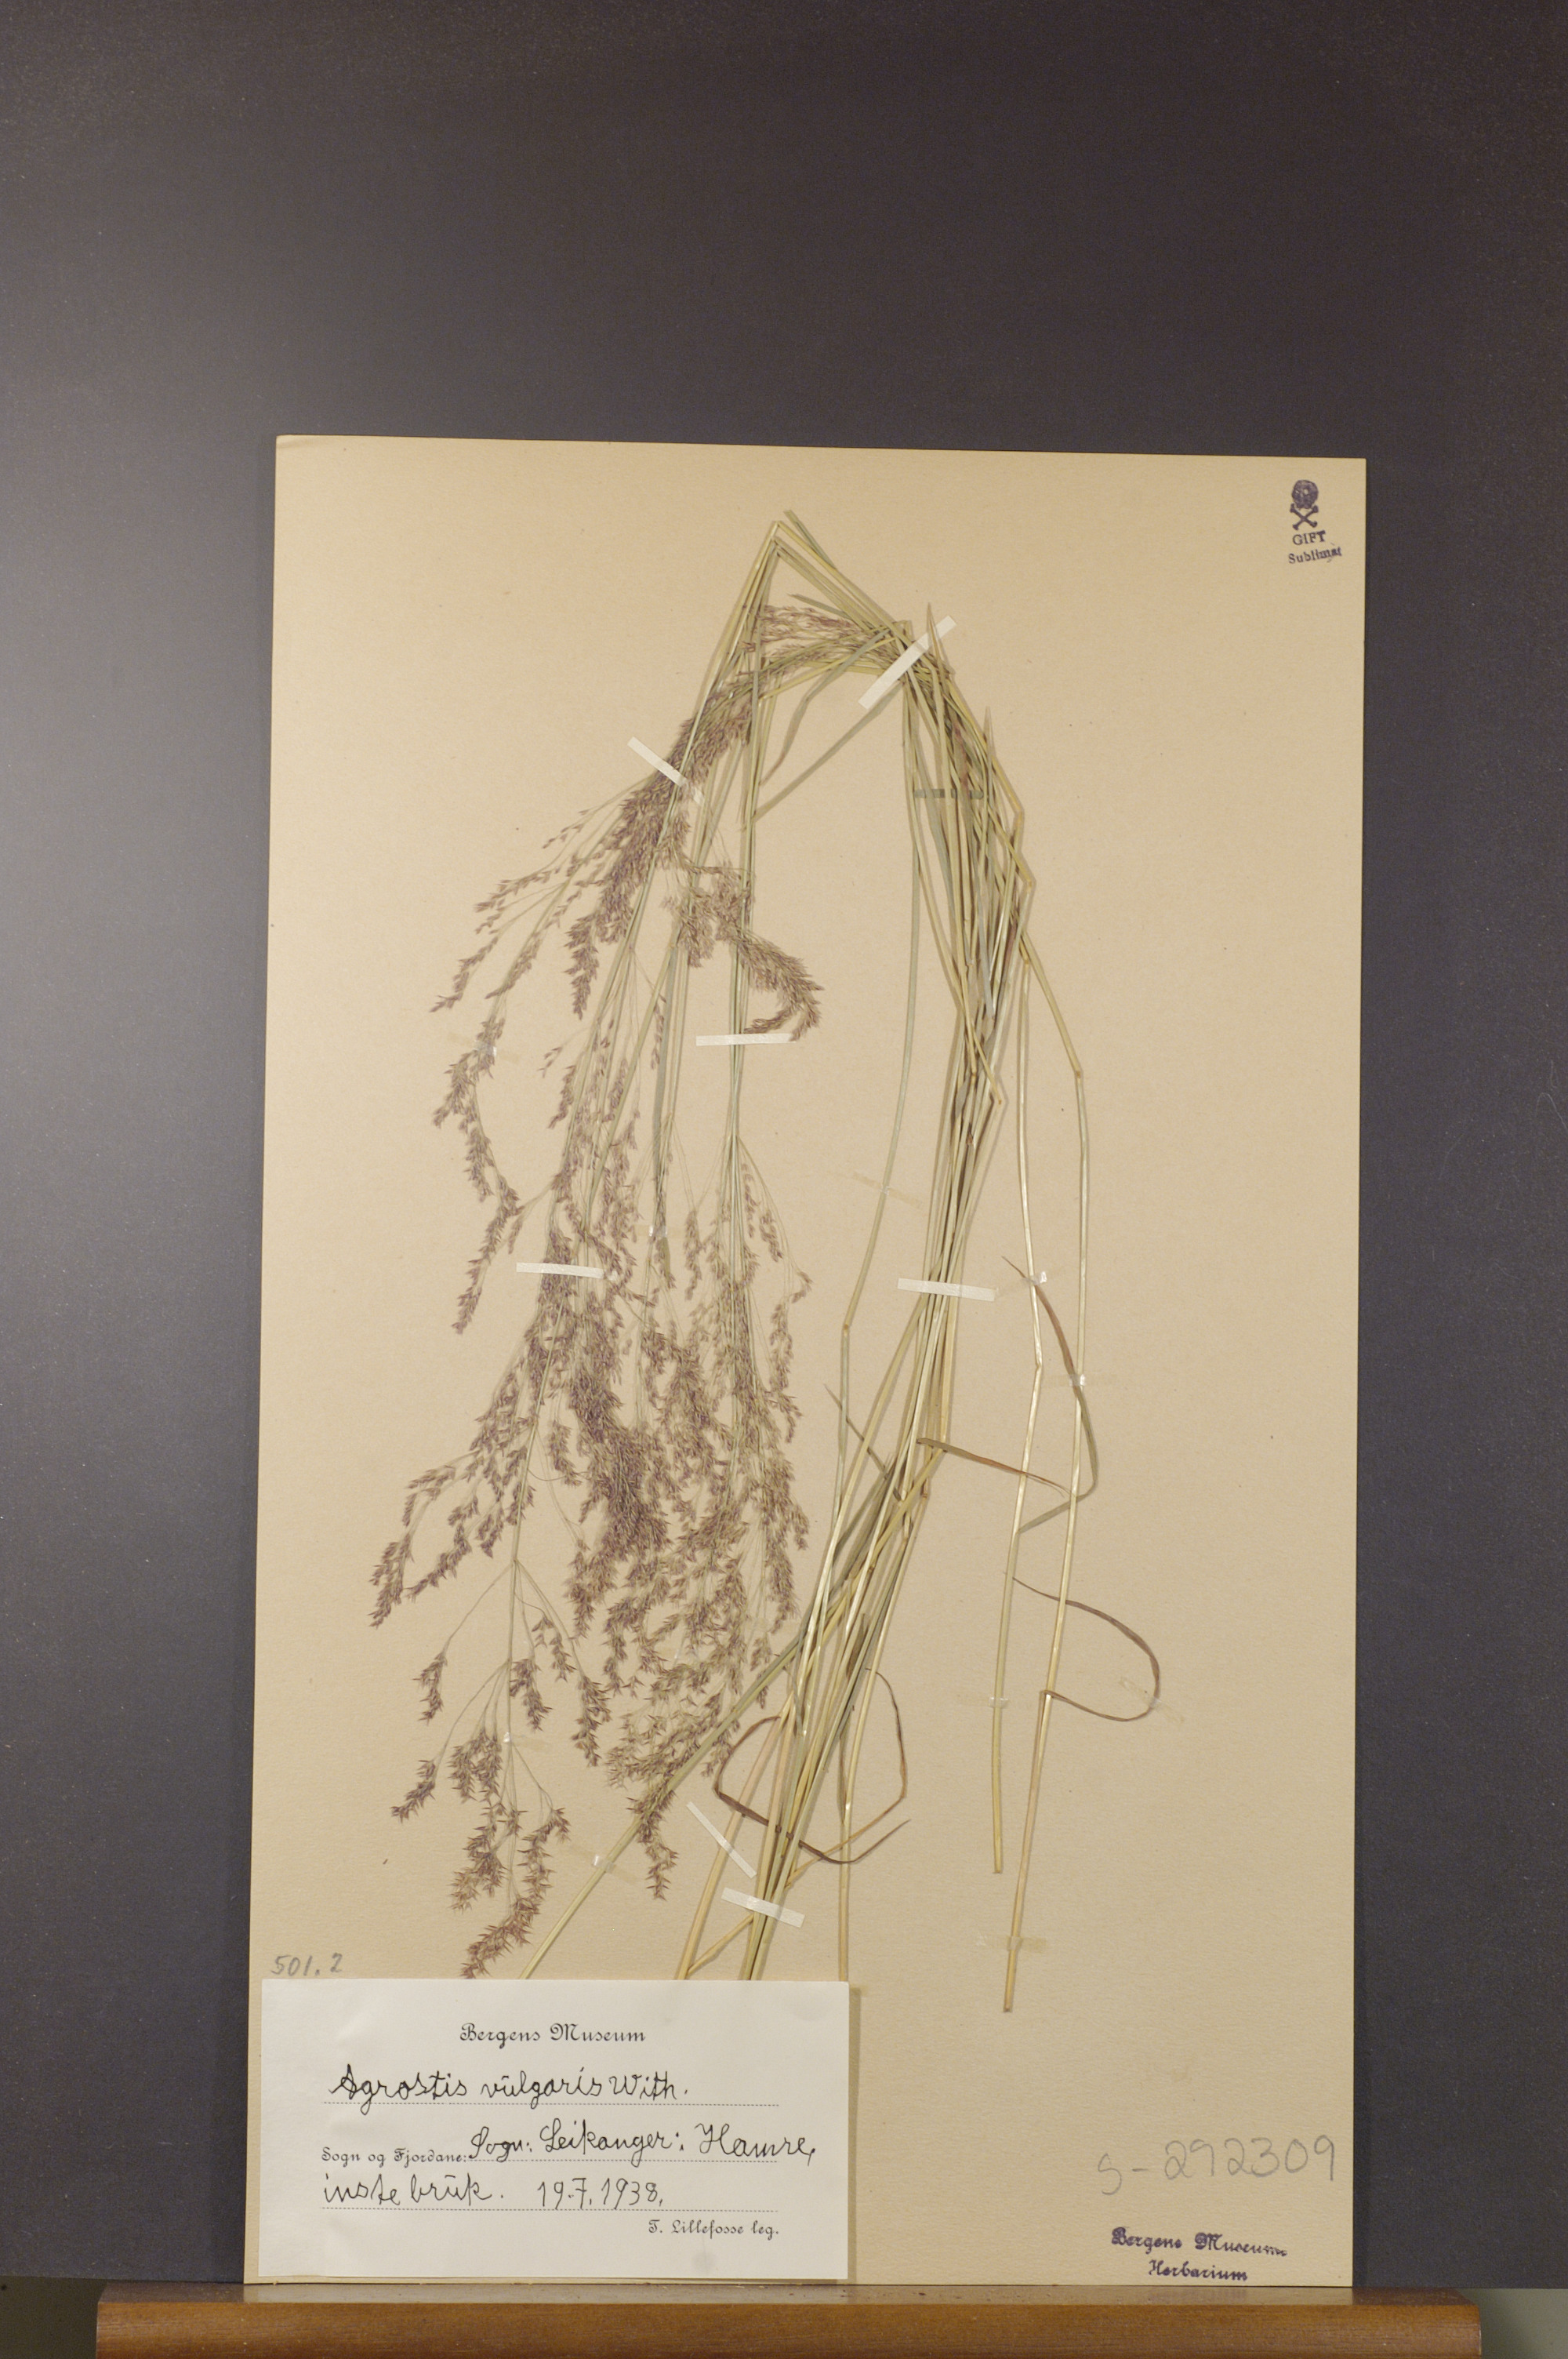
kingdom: Plantae
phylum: Tracheophyta
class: Liliopsida
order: Poales
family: Poaceae
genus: Agrostis
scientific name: Agrostis capillaris
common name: Colonial bentgrass
